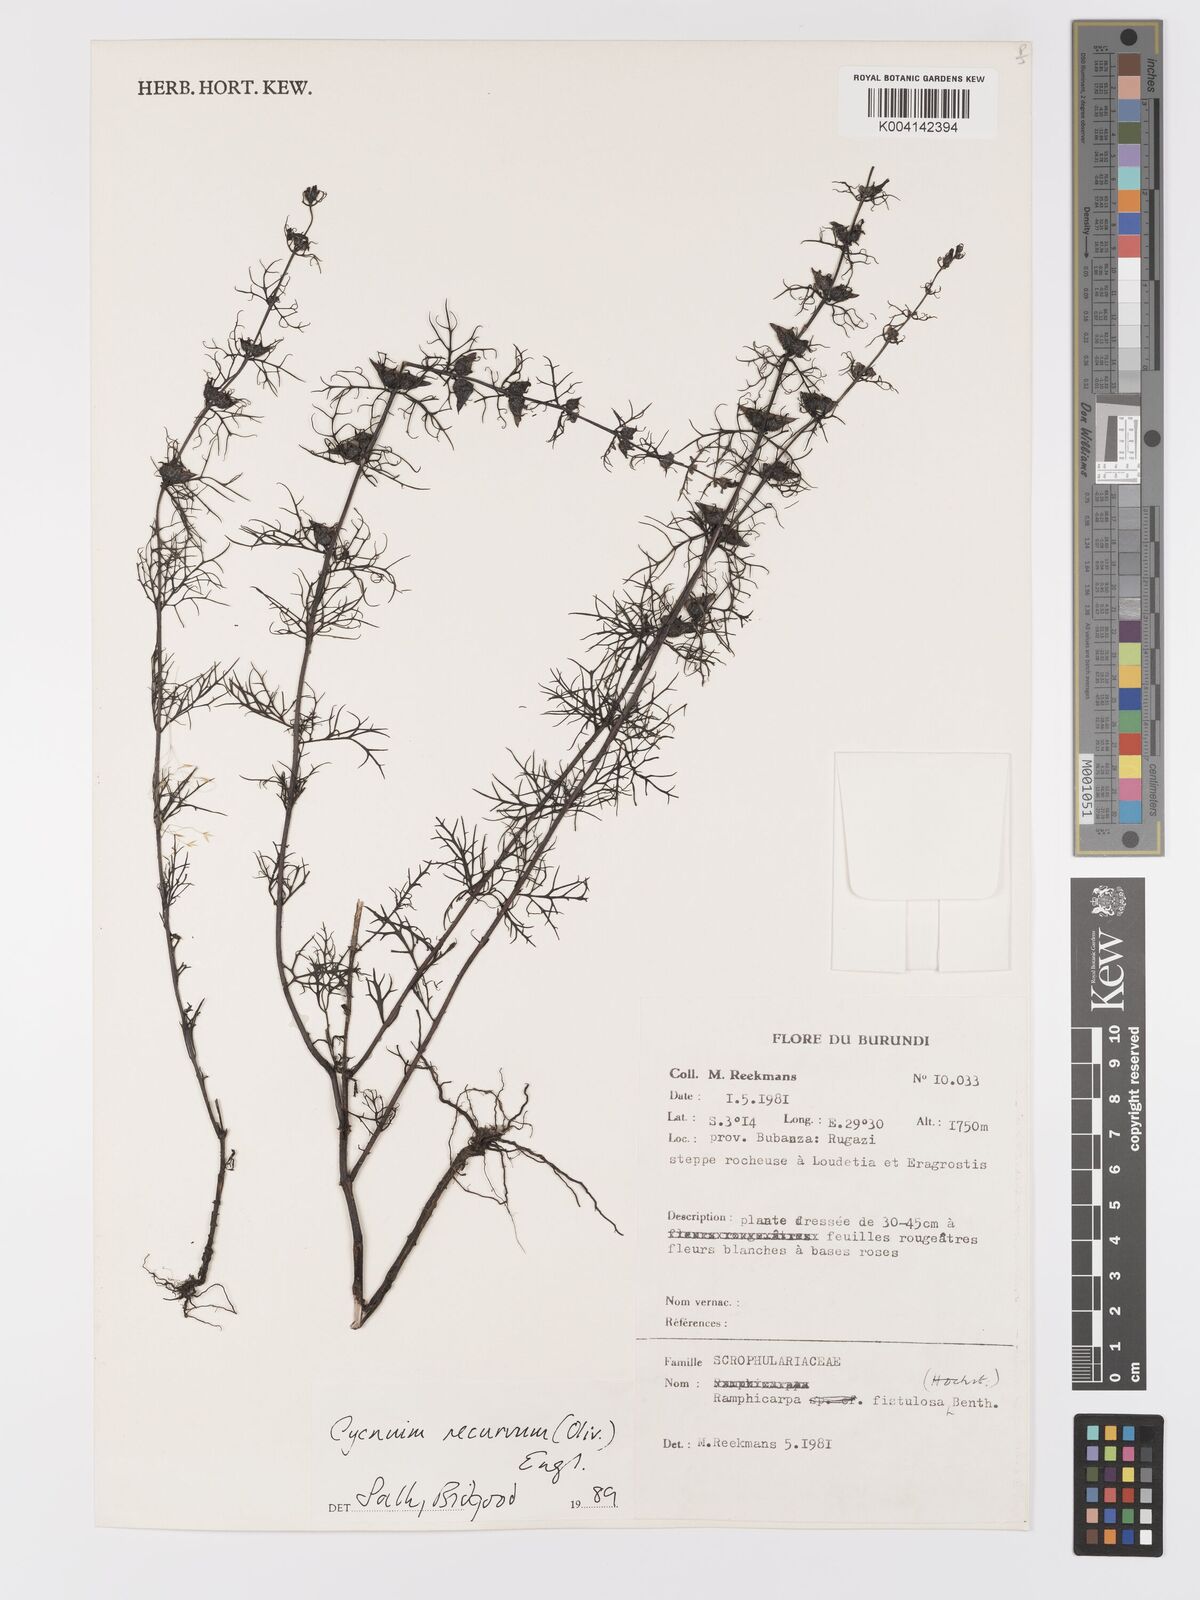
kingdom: Plantae
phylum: Tracheophyta
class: Magnoliopsida
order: Lamiales
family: Orobanchaceae
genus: Cycnium
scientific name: Cycnium recurvum
